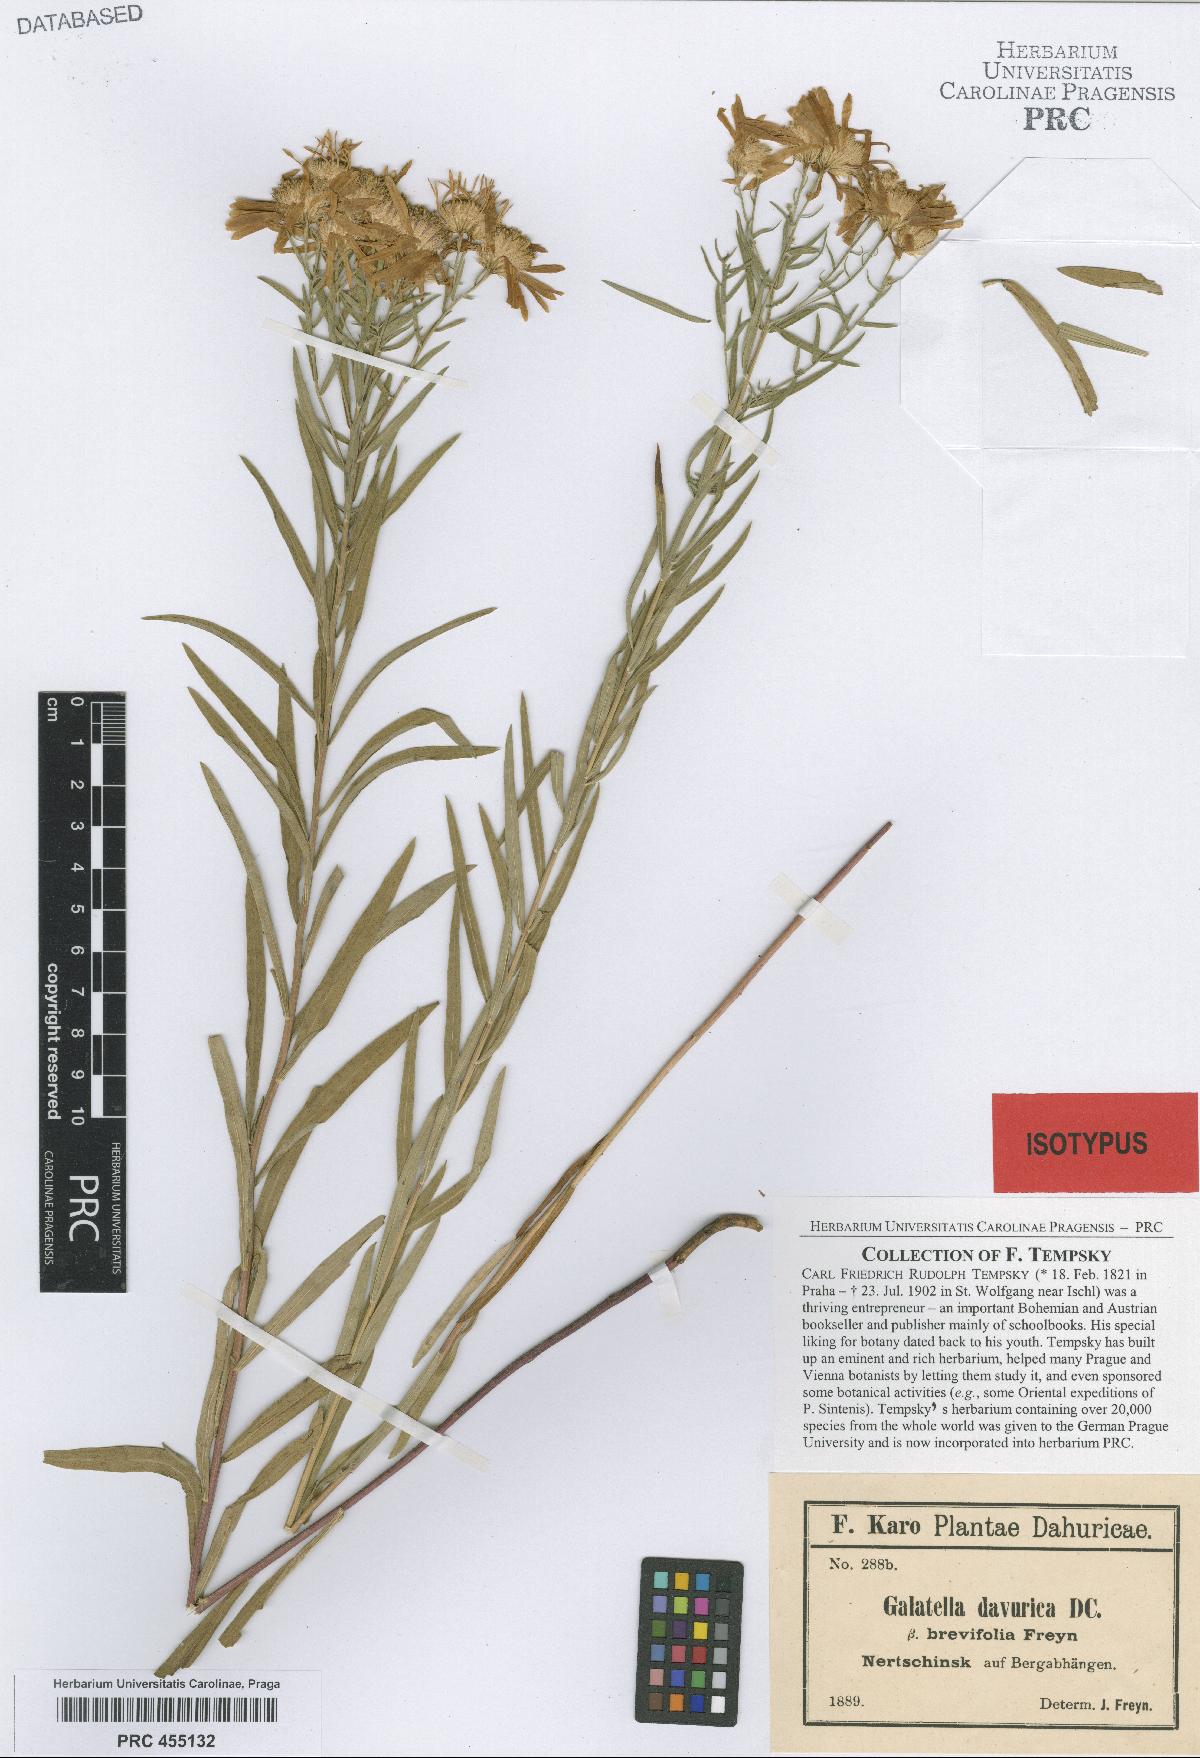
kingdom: Plantae
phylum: Tracheophyta
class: Magnoliopsida
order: Asterales
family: Asteraceae
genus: Galatella
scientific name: Galatella dahurica
